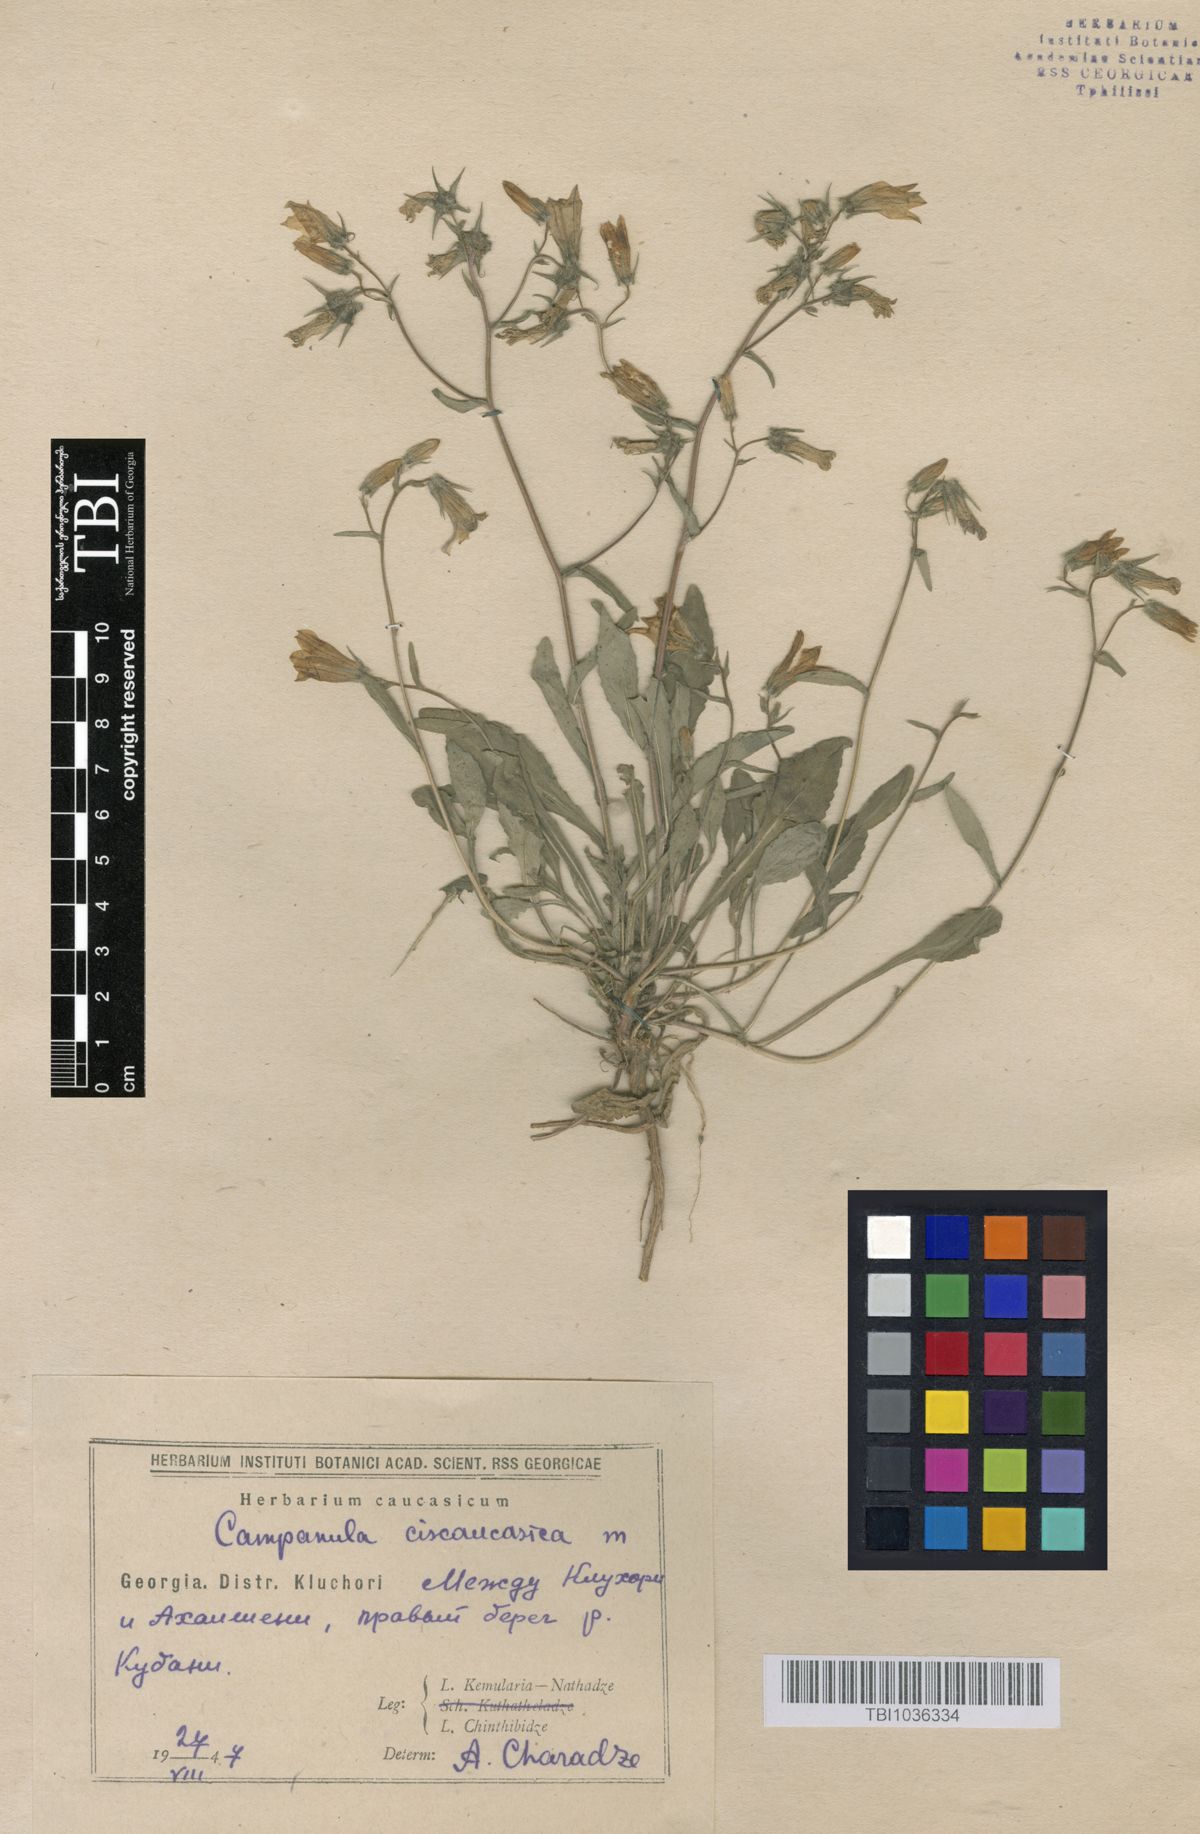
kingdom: Plantae
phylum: Tracheophyta
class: Magnoliopsida
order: Asterales
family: Campanulaceae
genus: Campanula
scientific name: Campanula sibirica
